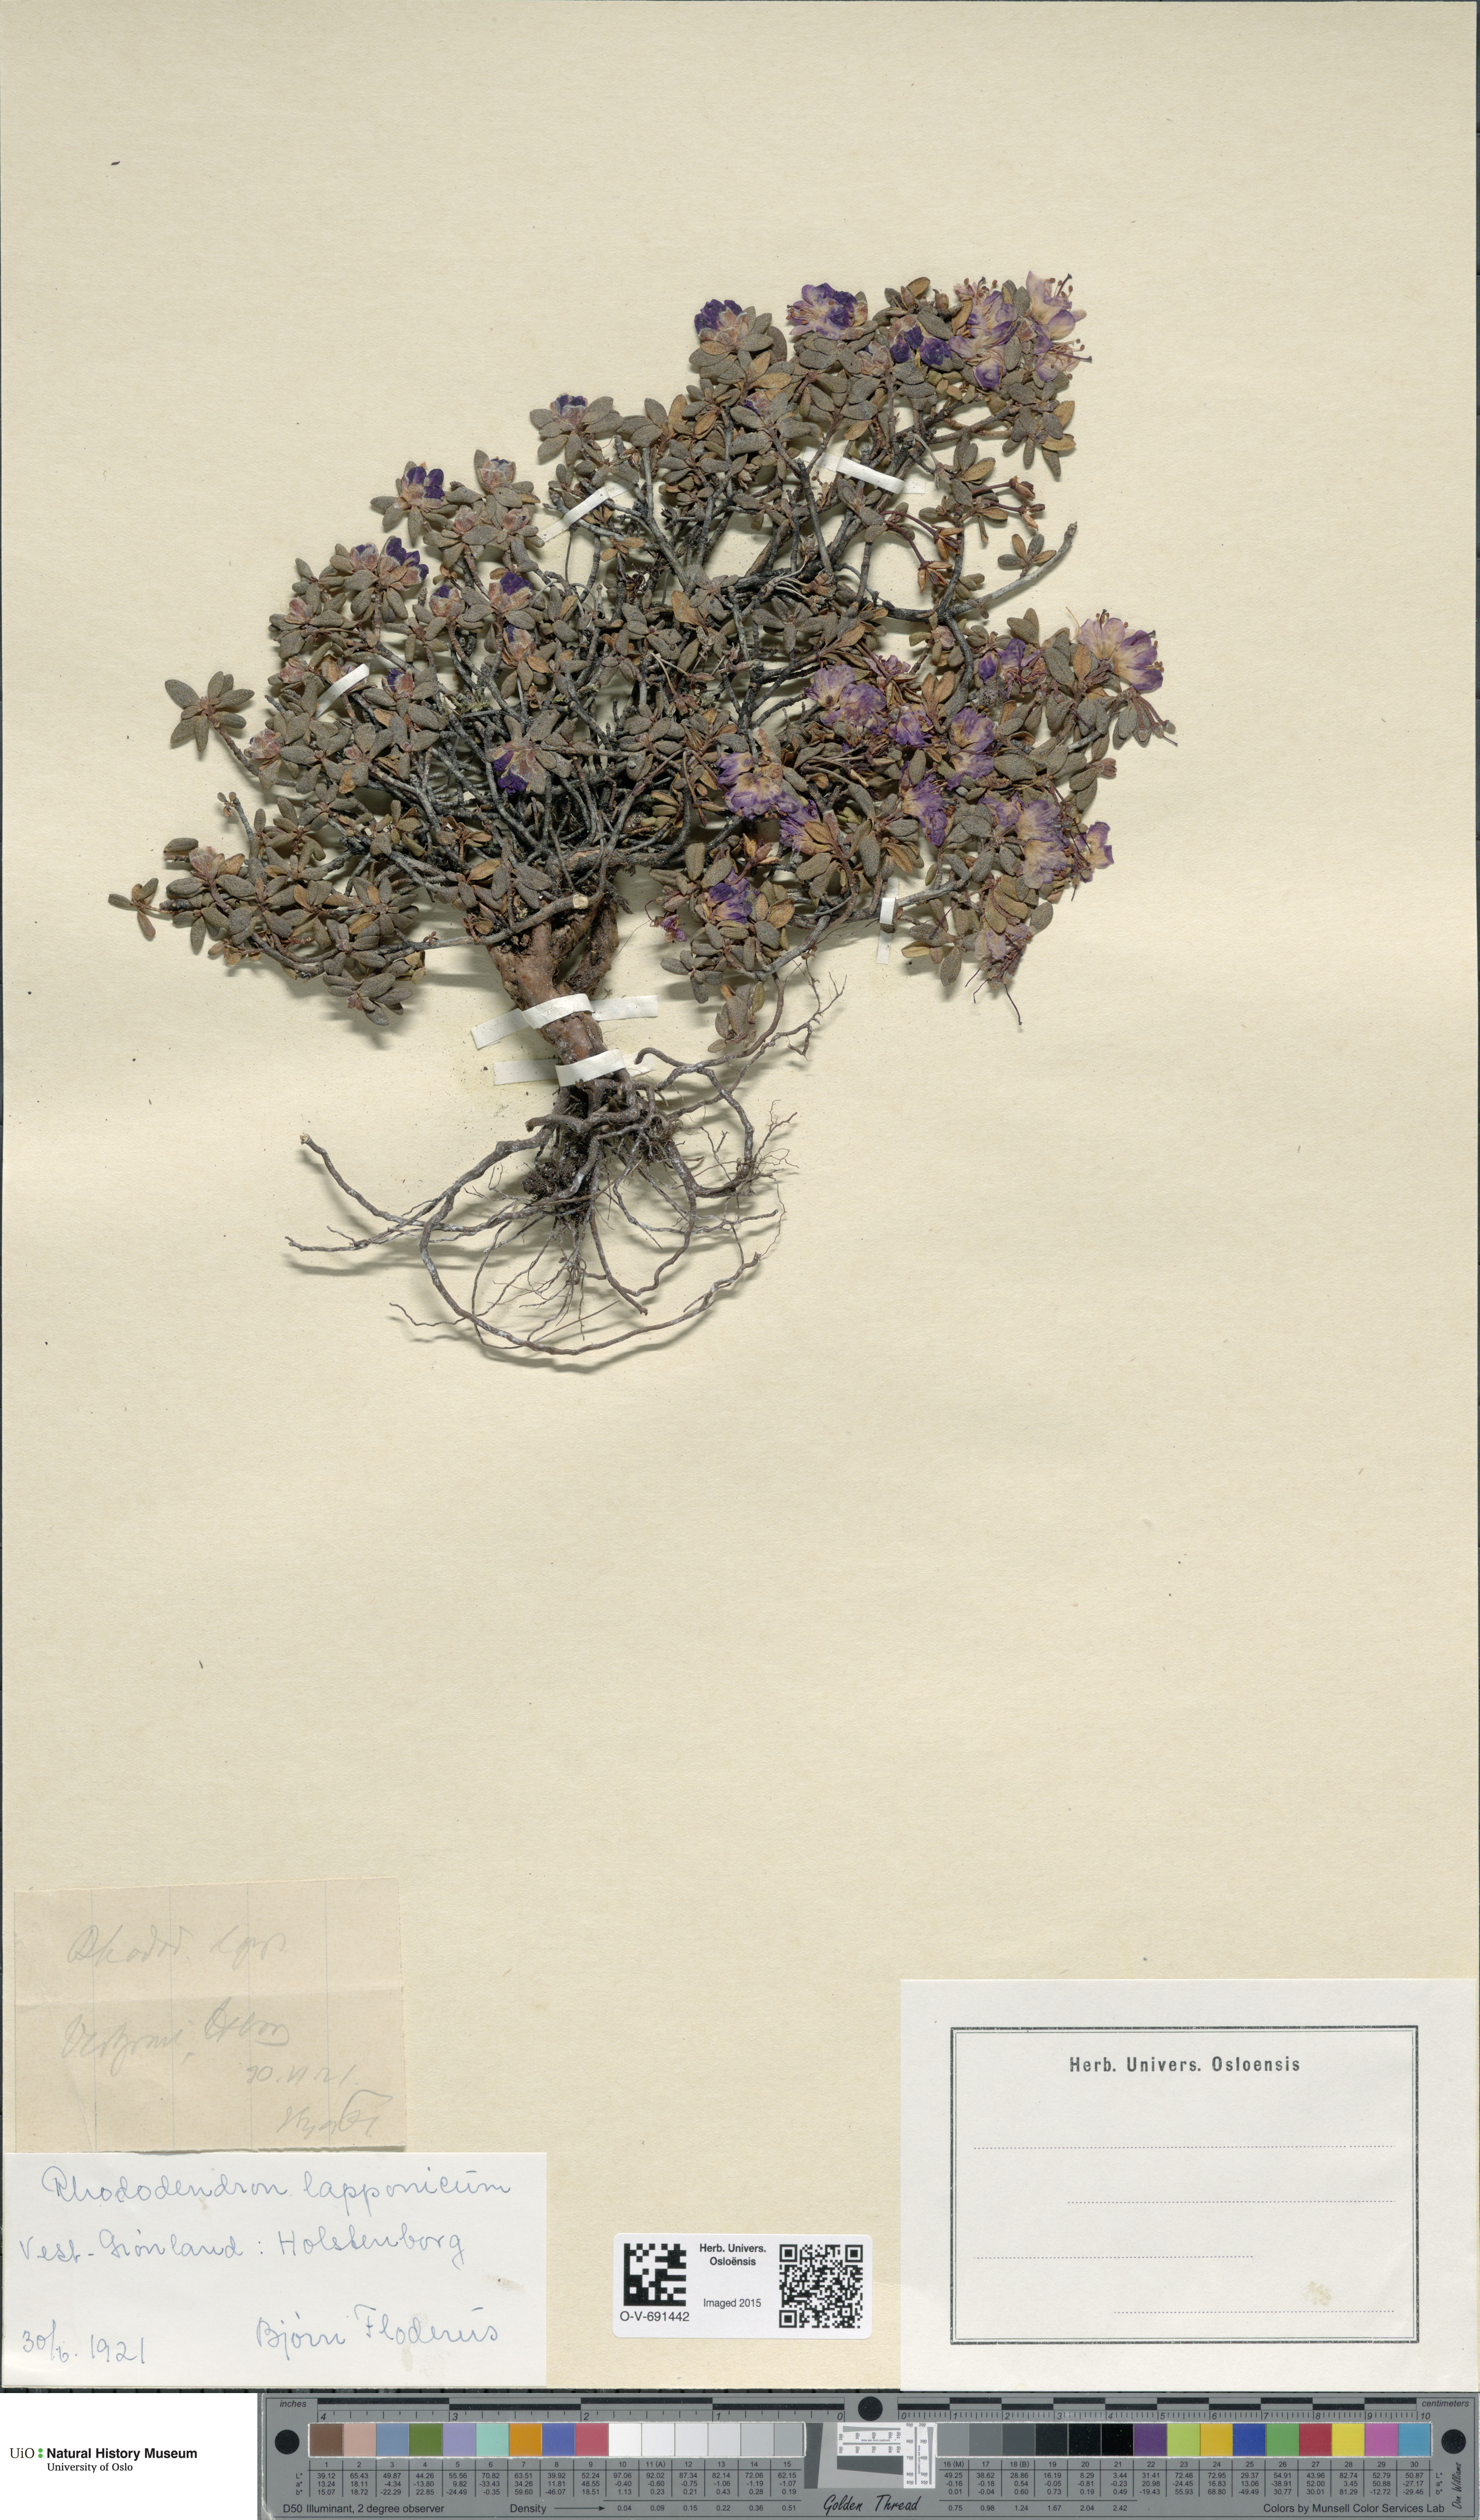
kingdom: Plantae
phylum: Tracheophyta
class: Magnoliopsida
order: Ericales
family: Ericaceae
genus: Rhododendron
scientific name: Rhododendron lapponicum
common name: Lapland rhododendron
